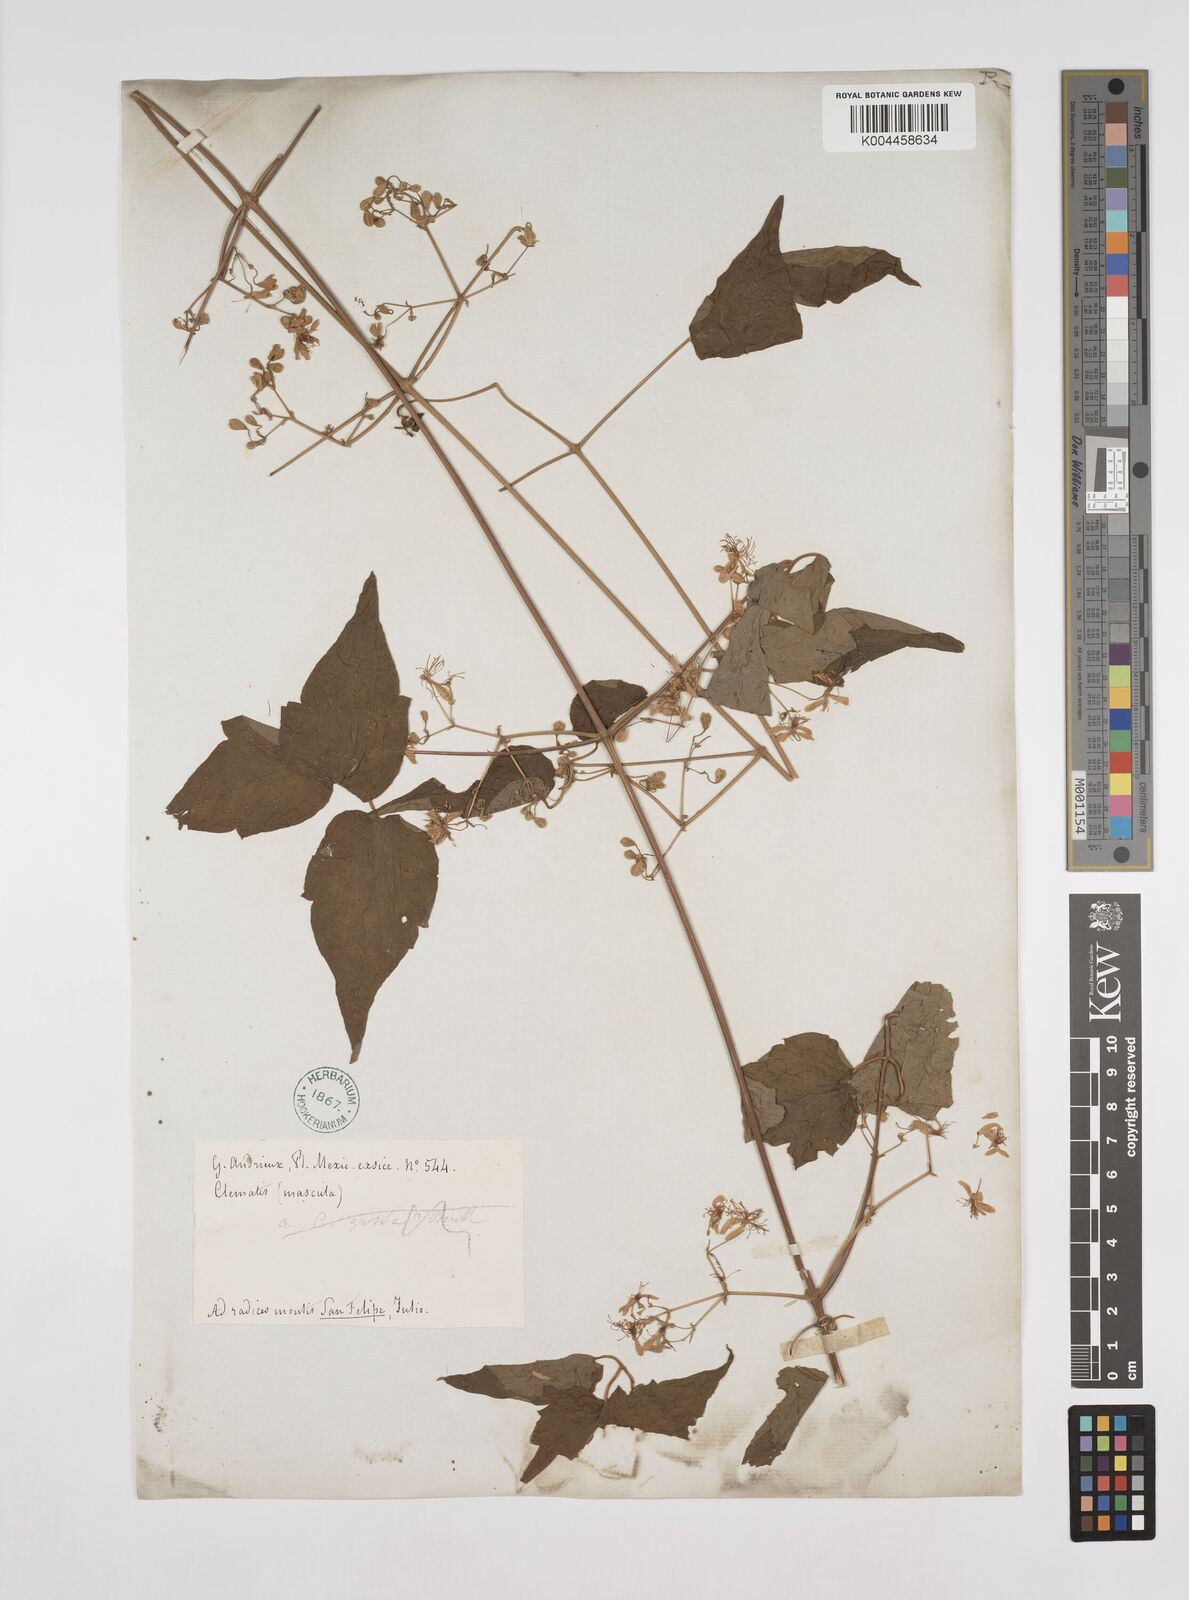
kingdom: Plantae
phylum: Tracheophyta
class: Magnoliopsida
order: Ranunculales
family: Ranunculaceae
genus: Clematis
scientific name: Clematis dioica
